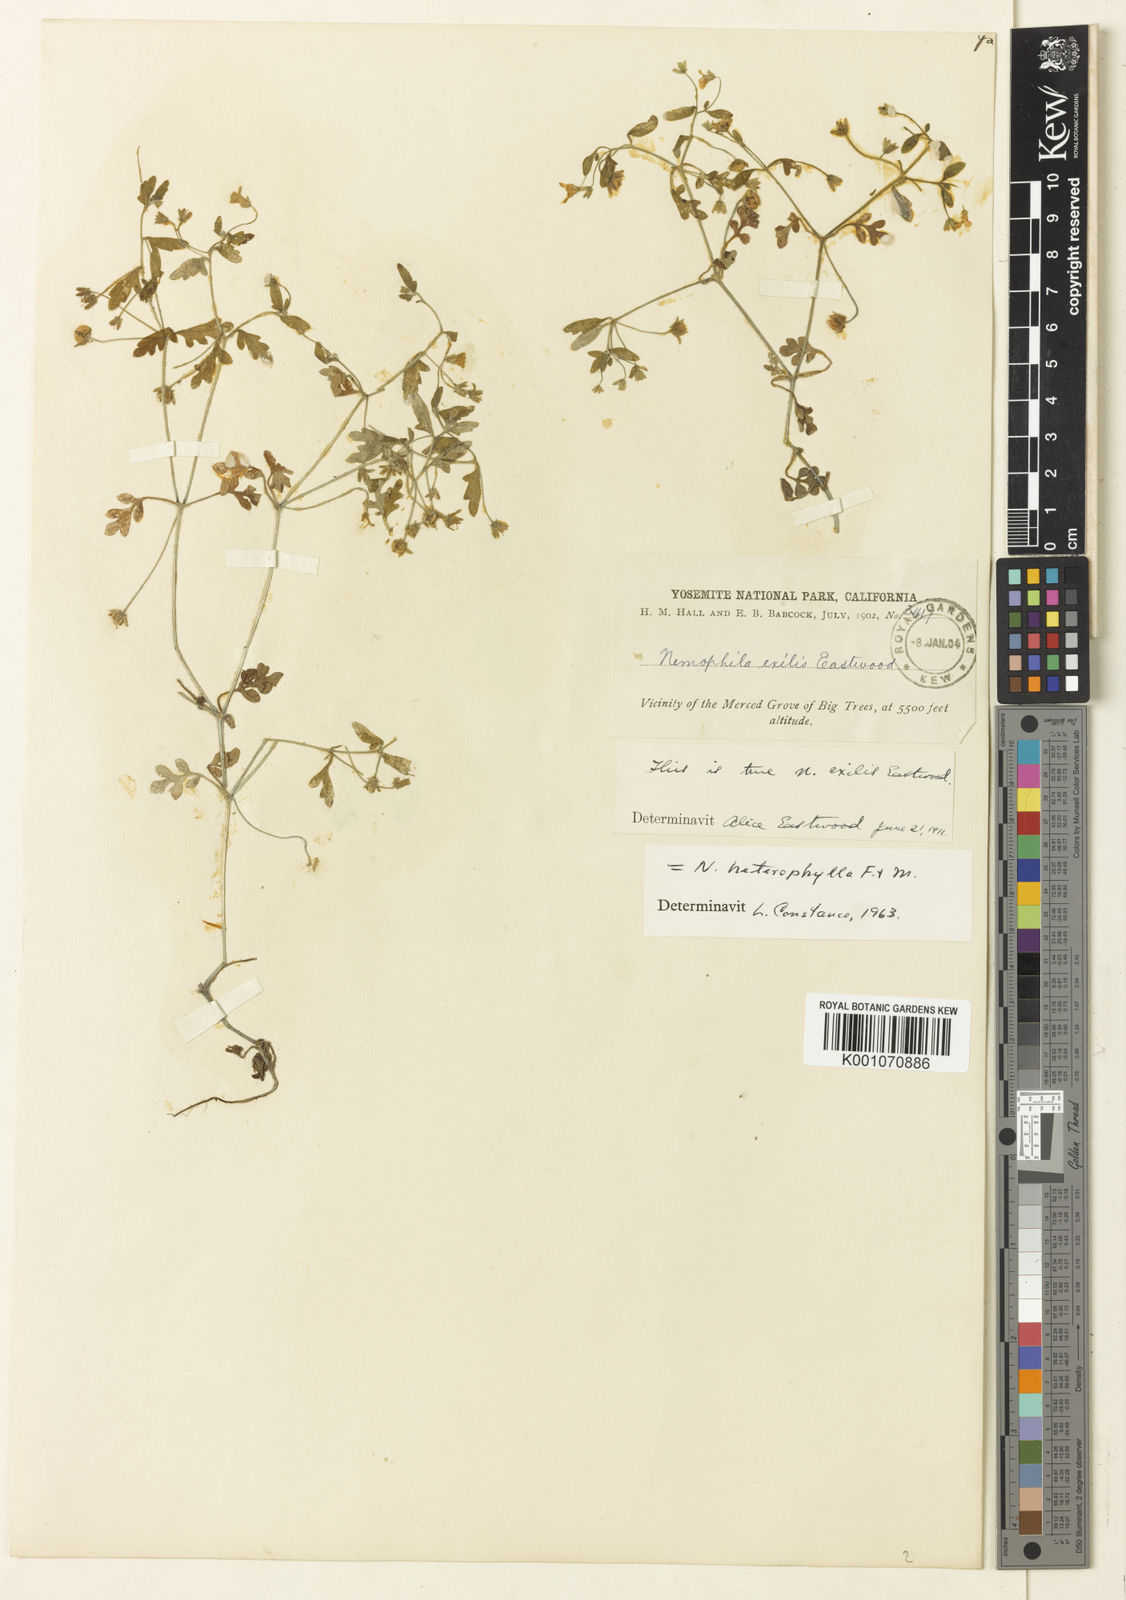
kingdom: Plantae
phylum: Tracheophyta
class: Magnoliopsida
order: Boraginales
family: Hydrophyllaceae
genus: Nemophila
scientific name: Nemophila heterophylla
